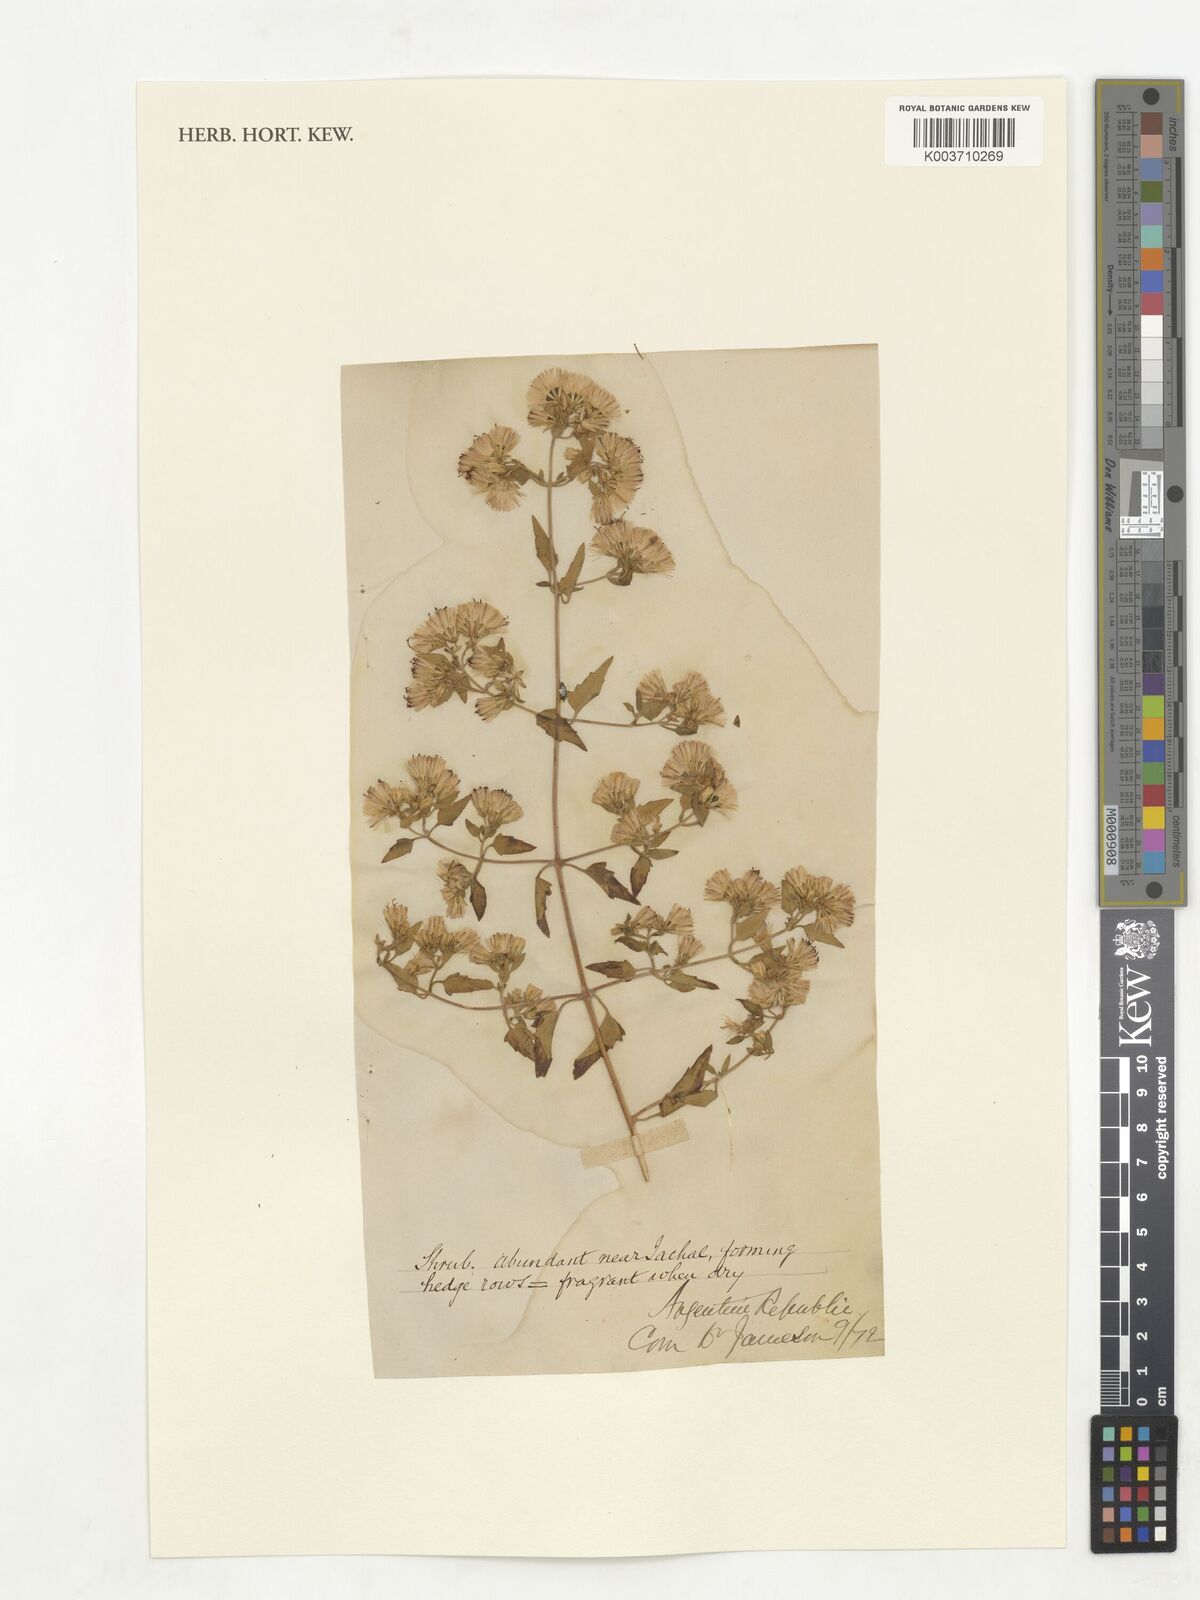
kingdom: Plantae
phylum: Tracheophyta
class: Magnoliopsida
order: Asterales
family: Asteraceae
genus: Austrobrickellia
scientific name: Austrobrickellia patens
